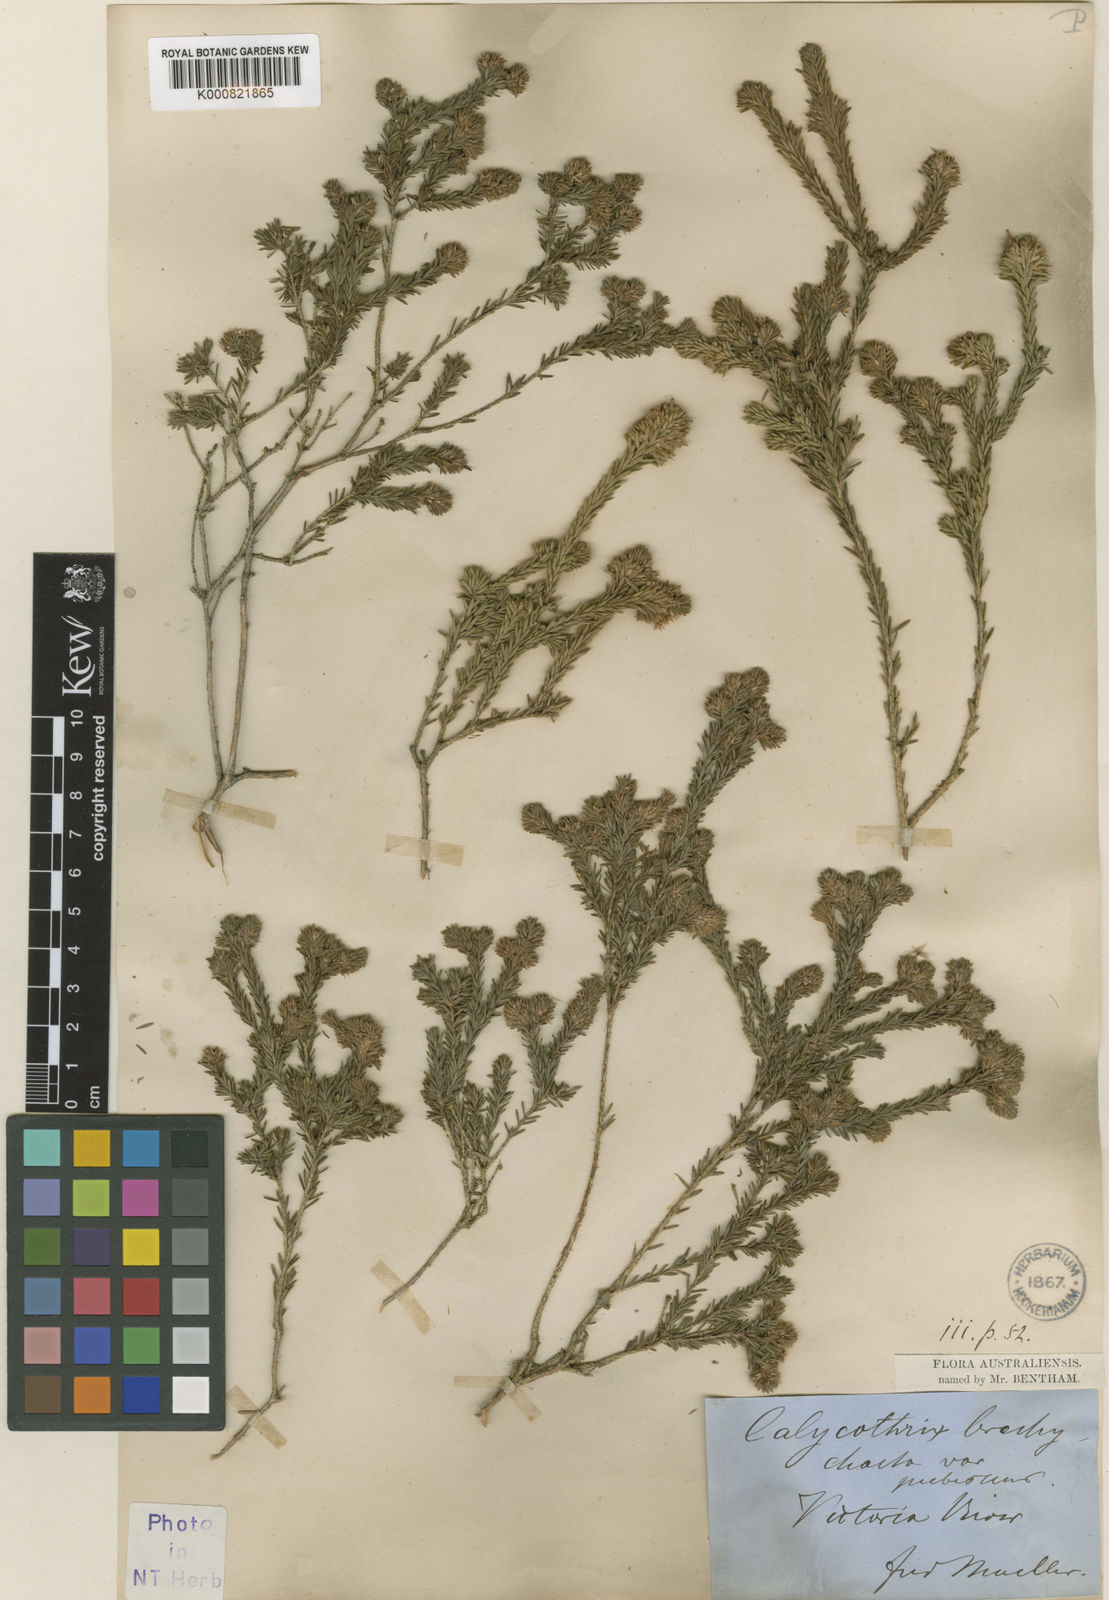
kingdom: Plantae
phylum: Tracheophyta
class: Magnoliopsida
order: Myrtales
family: Myrtaceae
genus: Calytrix
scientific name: Calytrix brownii
